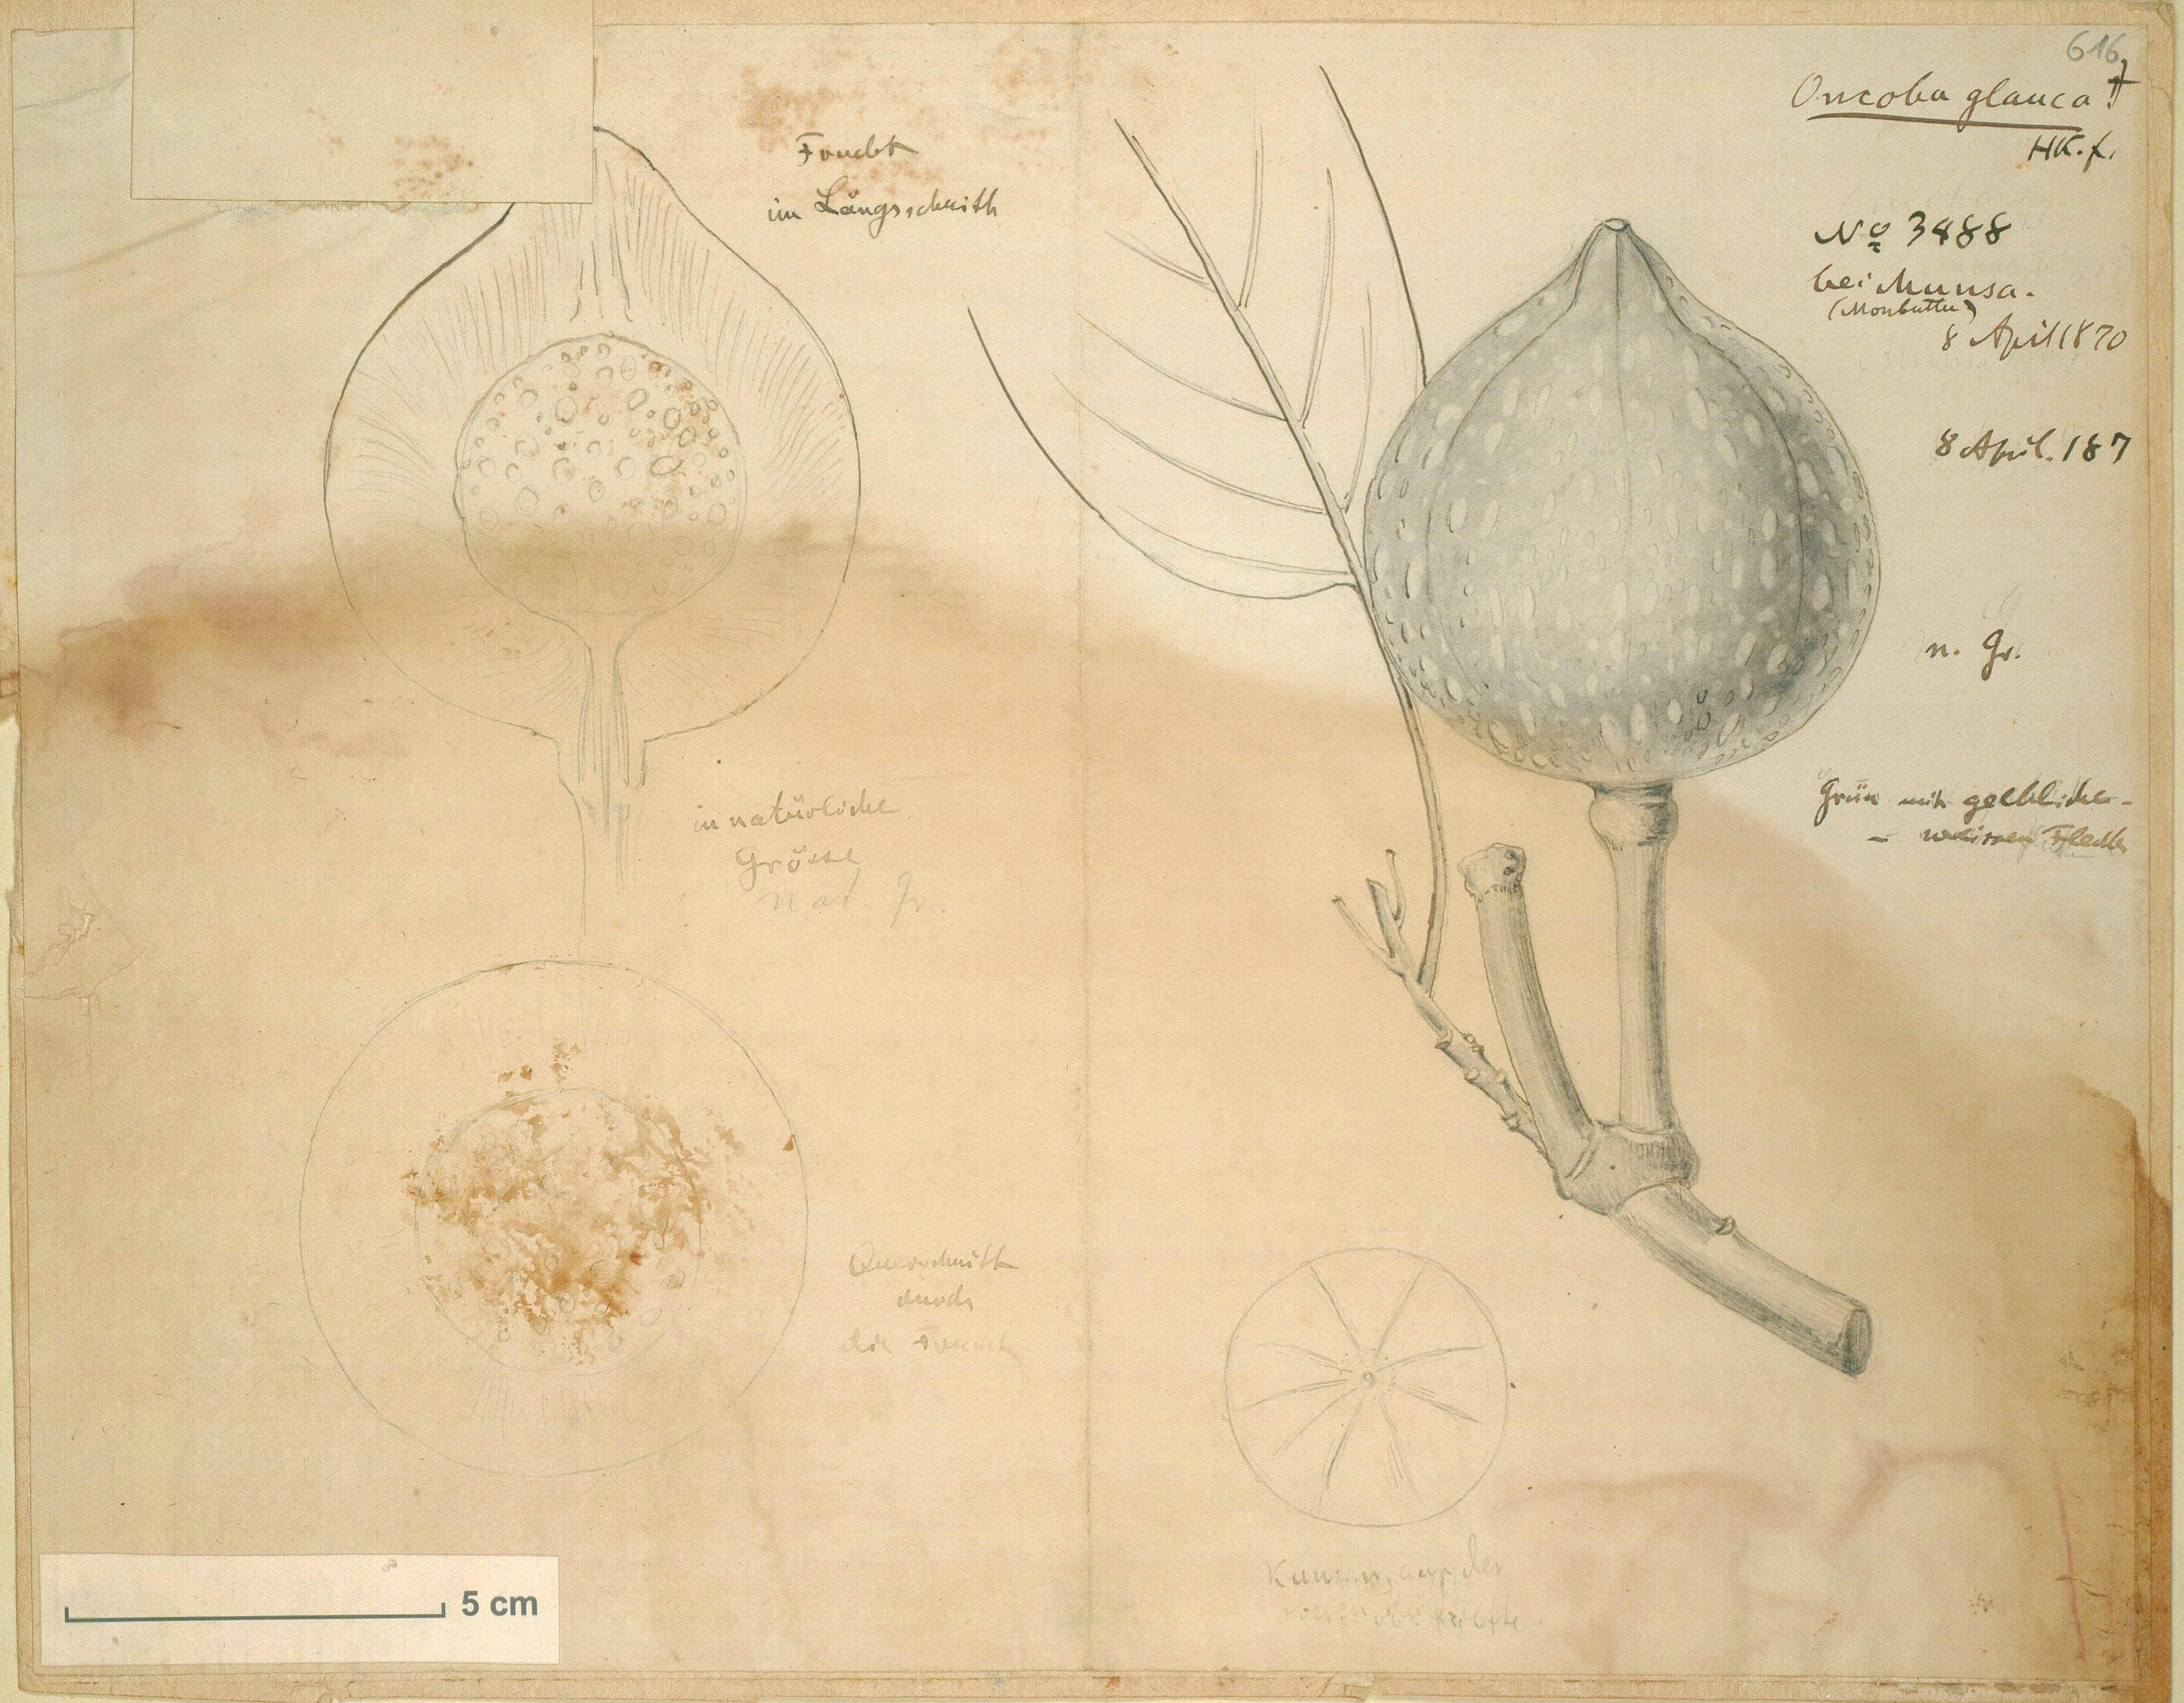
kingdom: Plantae
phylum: Tracheophyta
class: Magnoliopsida
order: Malpighiales
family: Achariaceae
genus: Caloncoba
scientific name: Caloncoba glauca
